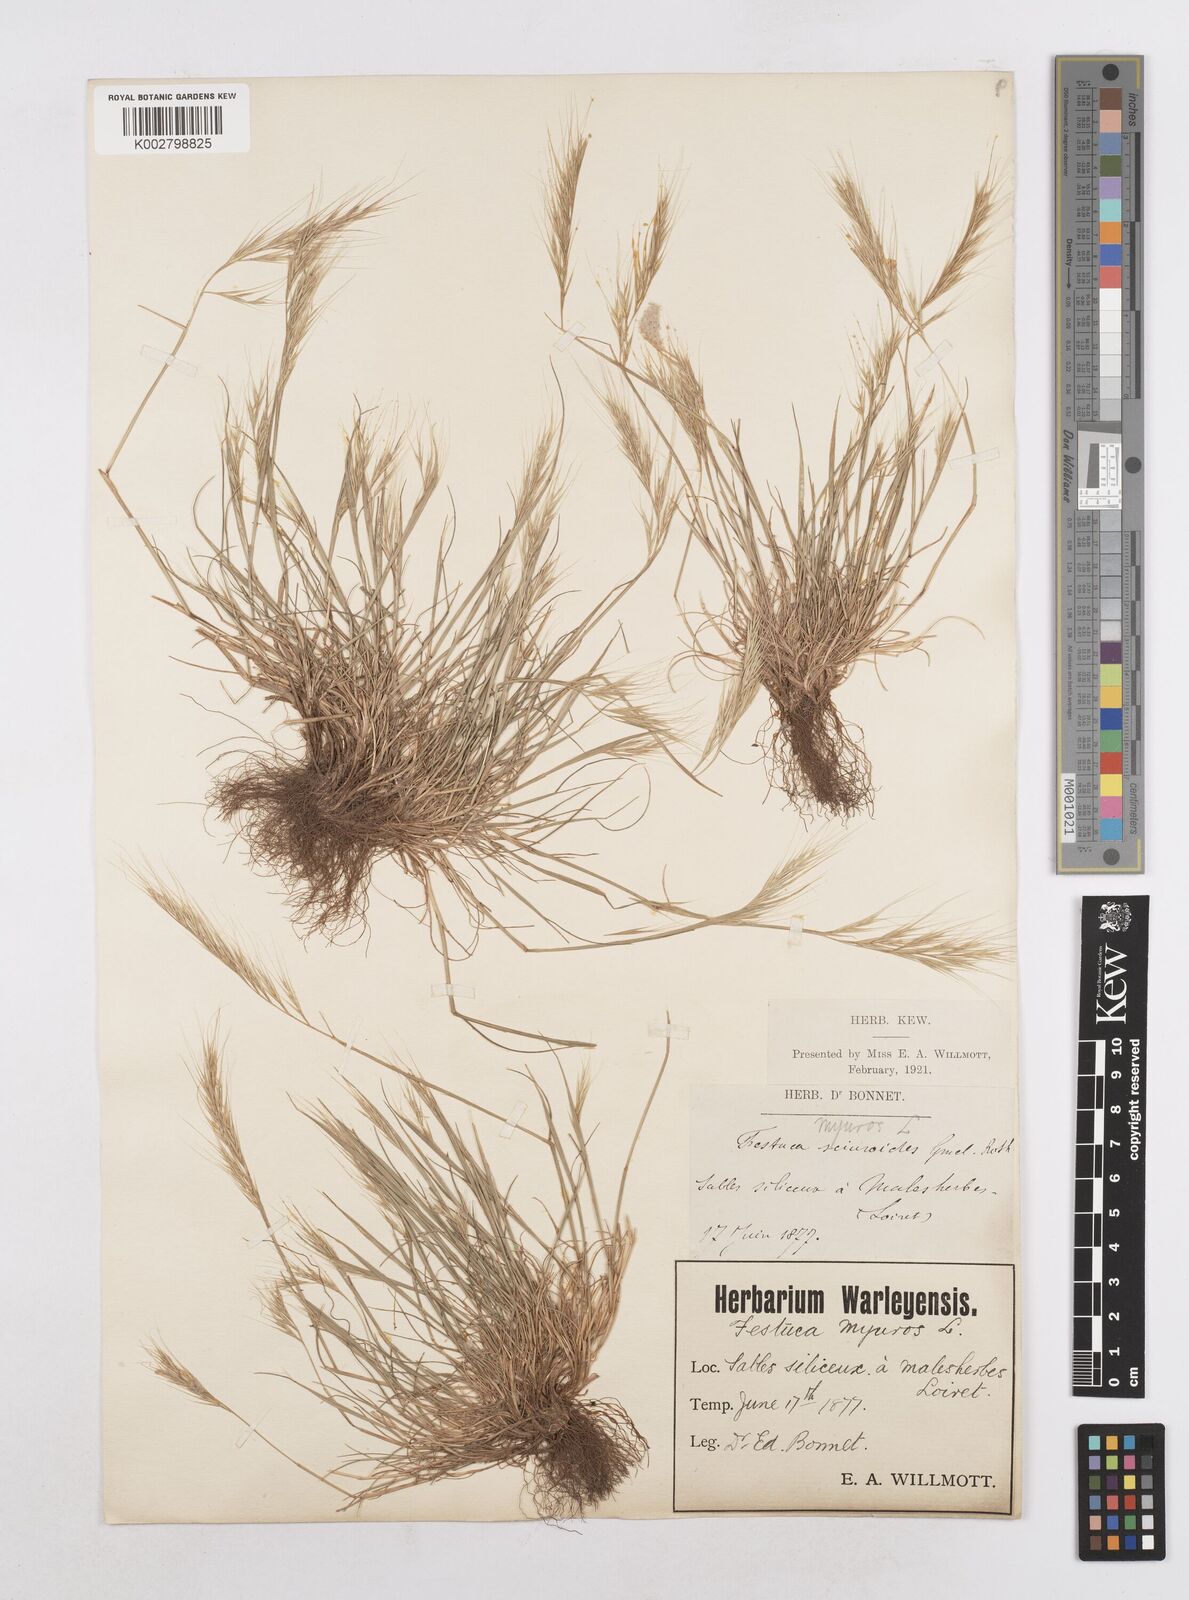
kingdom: Plantae
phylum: Tracheophyta
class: Liliopsida
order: Poales
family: Poaceae
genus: Festuca
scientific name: Festuca membranacea
